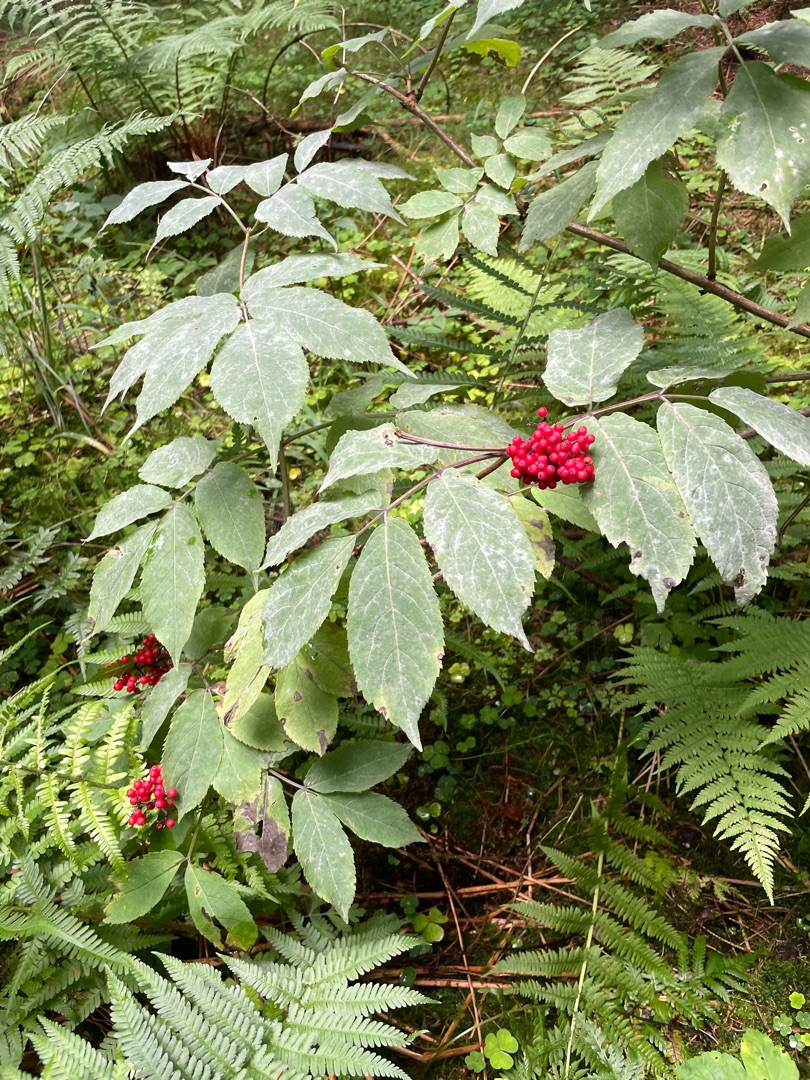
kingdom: Plantae
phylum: Tracheophyta
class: Magnoliopsida
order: Dipsacales
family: Viburnaceae
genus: Sambucus
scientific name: Sambucus racemosa
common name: Drue-hyld
